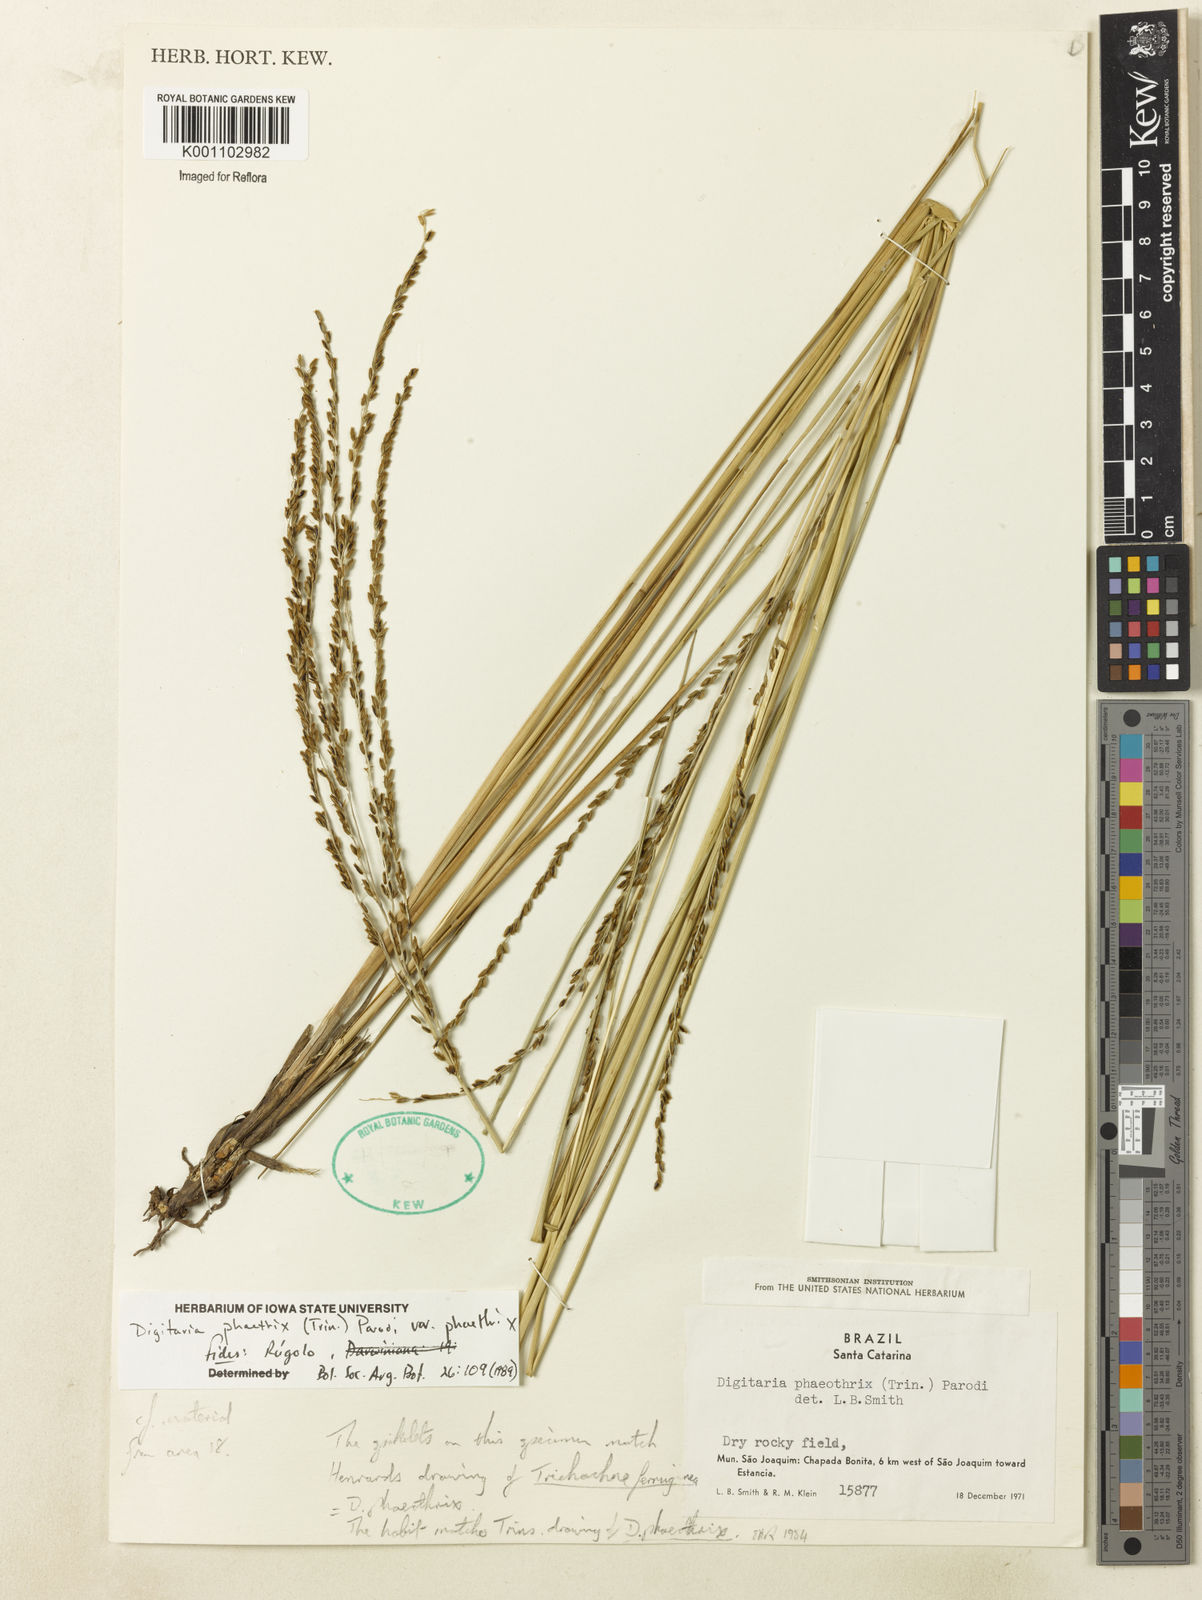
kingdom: Plantae
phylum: Tracheophyta
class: Liliopsida
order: Poales
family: Poaceae
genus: Digitaria
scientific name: Digitaria phaeothrix
